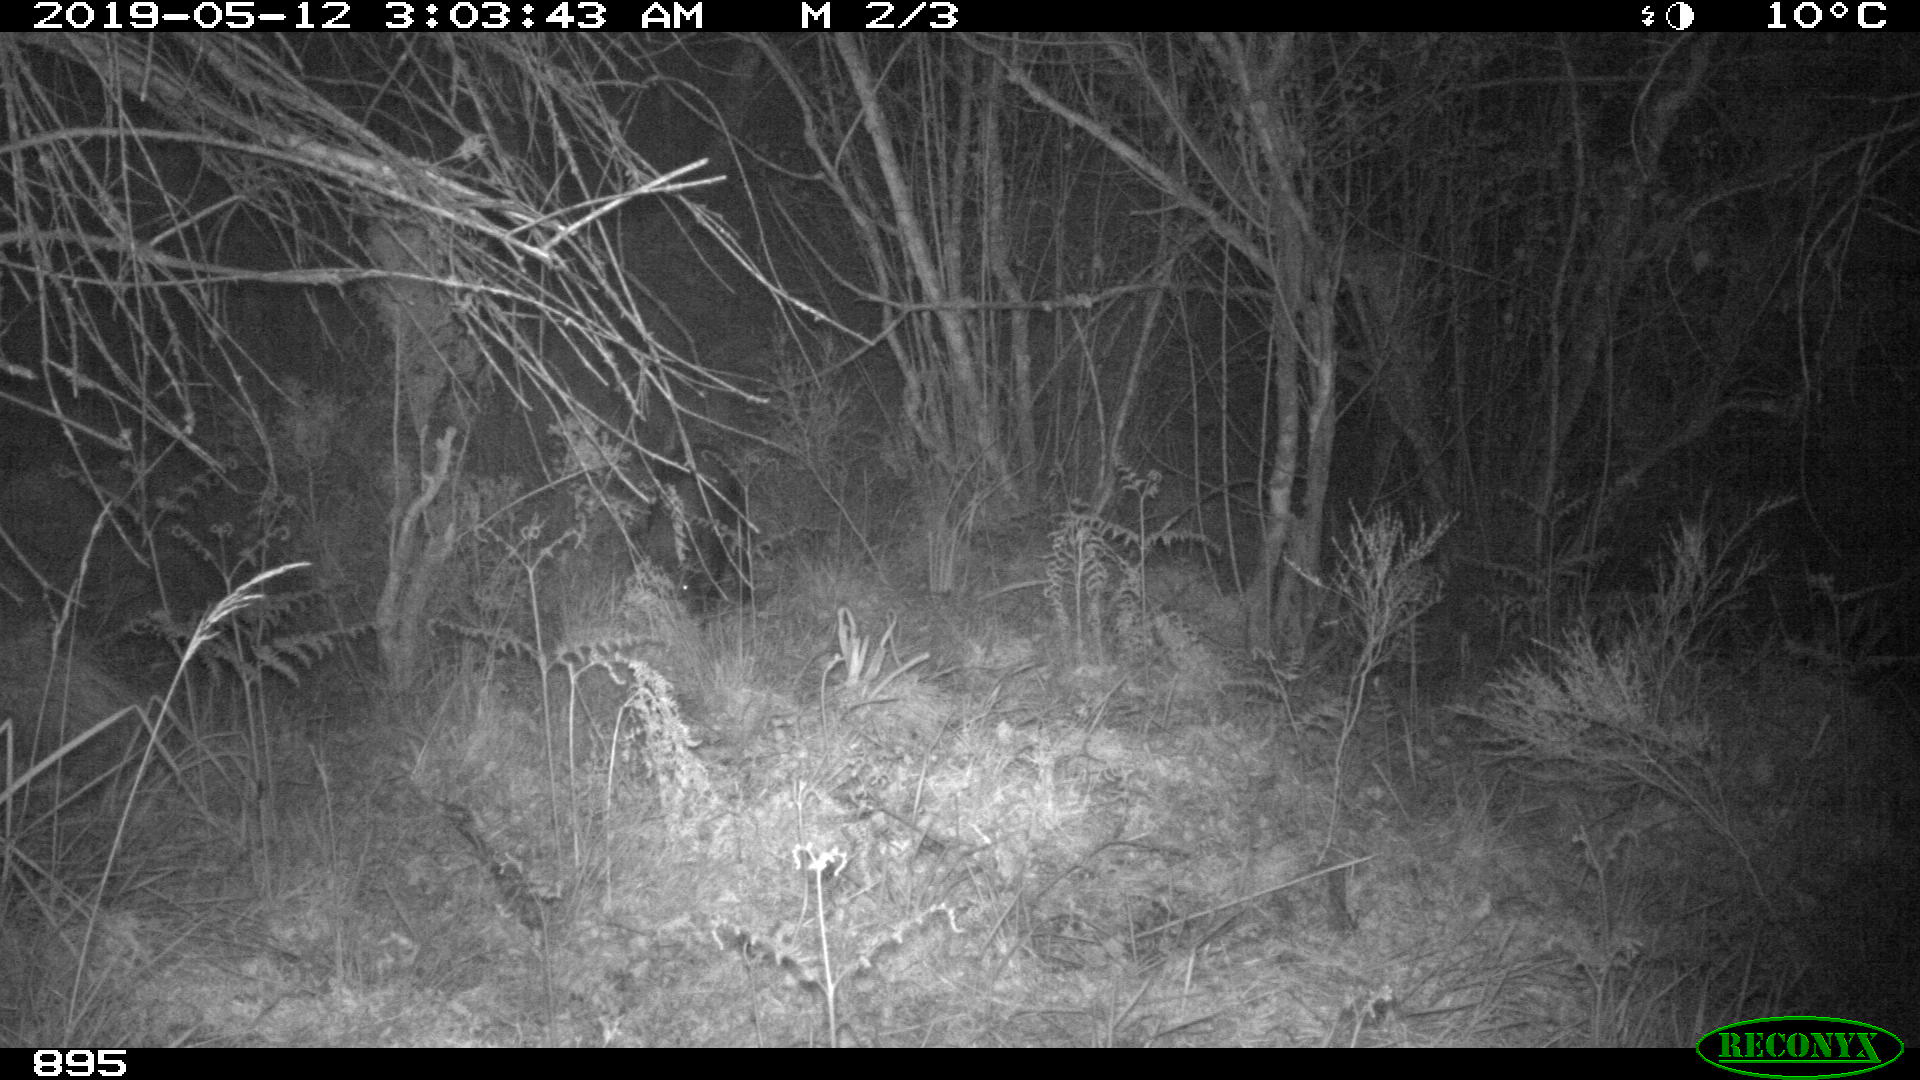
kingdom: Animalia
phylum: Chordata
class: Mammalia
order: Artiodactyla
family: Suidae
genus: Sus
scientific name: Sus scrofa
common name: Wild boar
